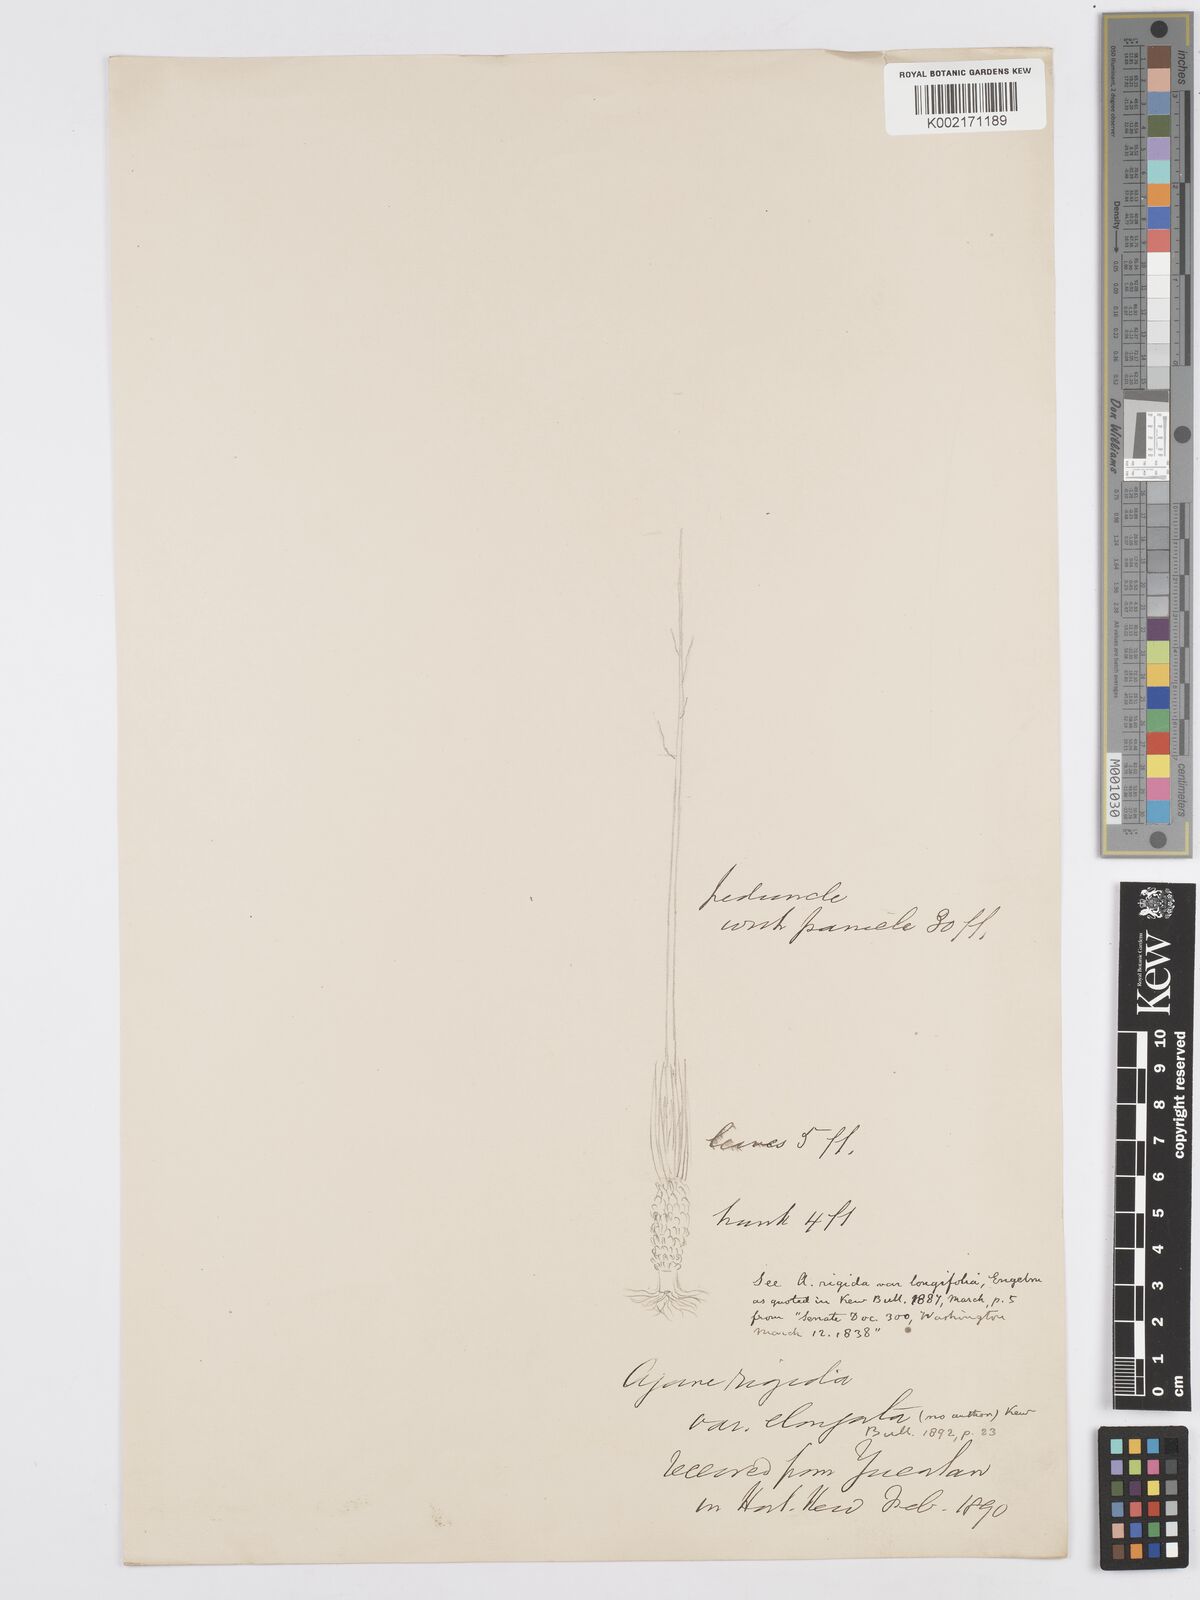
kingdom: Plantae
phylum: Tracheophyta
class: Liliopsida
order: Asparagales
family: Asparagaceae
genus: Agave
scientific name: Agave angustifolia
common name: Mescal agave
